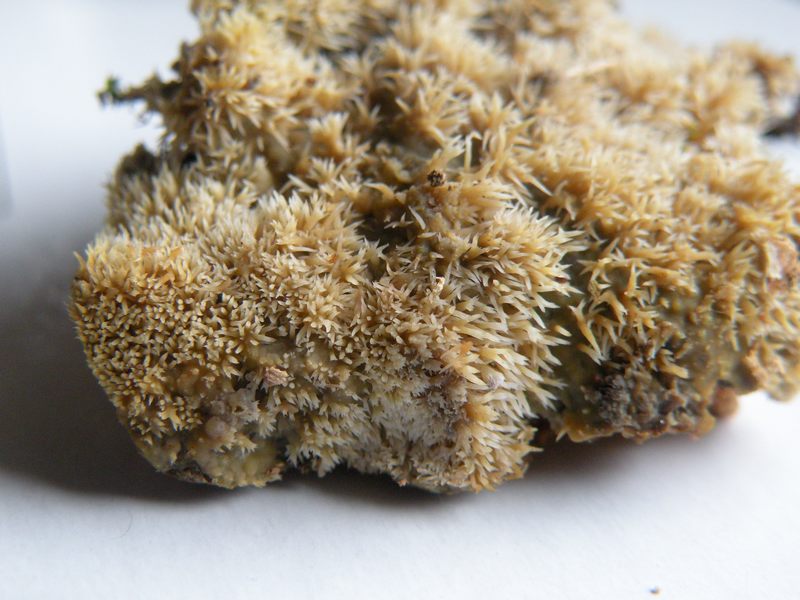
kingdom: Fungi
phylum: Basidiomycota
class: Agaricomycetes
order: Polyporales
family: Meruliaceae
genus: Mycoacia
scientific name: Mycoacia uda
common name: citrongul vokspig
